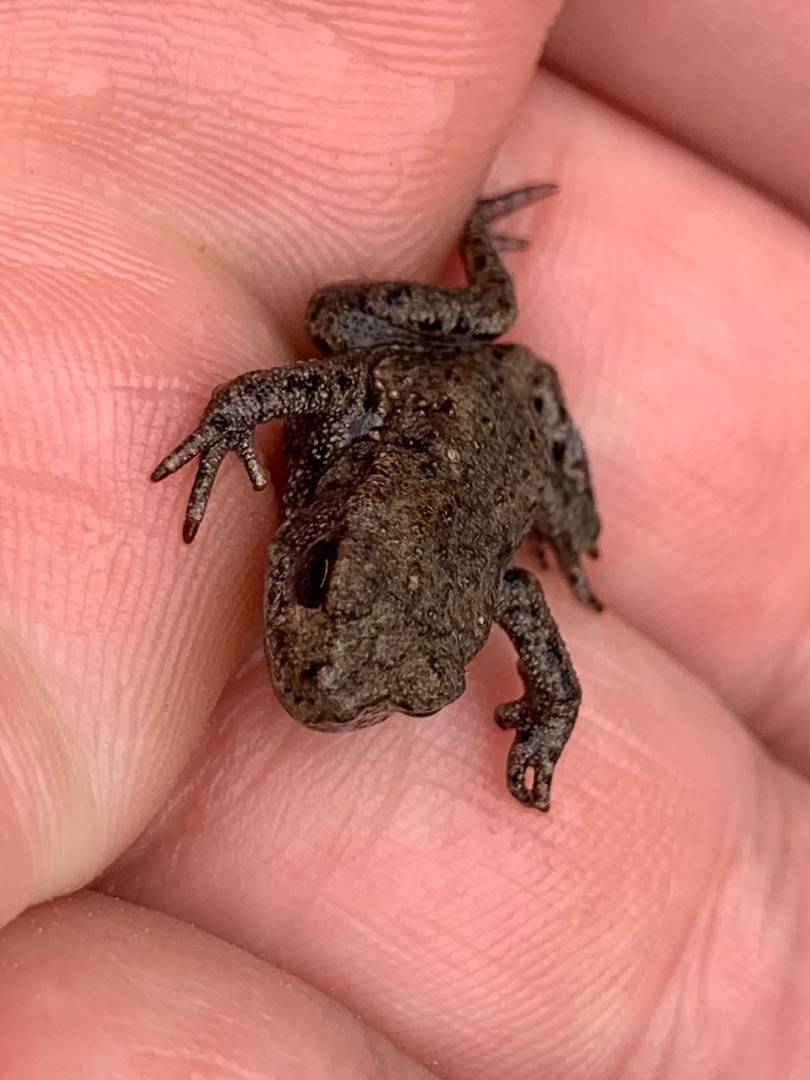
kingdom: Animalia
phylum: Chordata
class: Amphibia
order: Anura
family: Bufonidae
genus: Bufo
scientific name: Bufo bufo
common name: Skrubtudse
